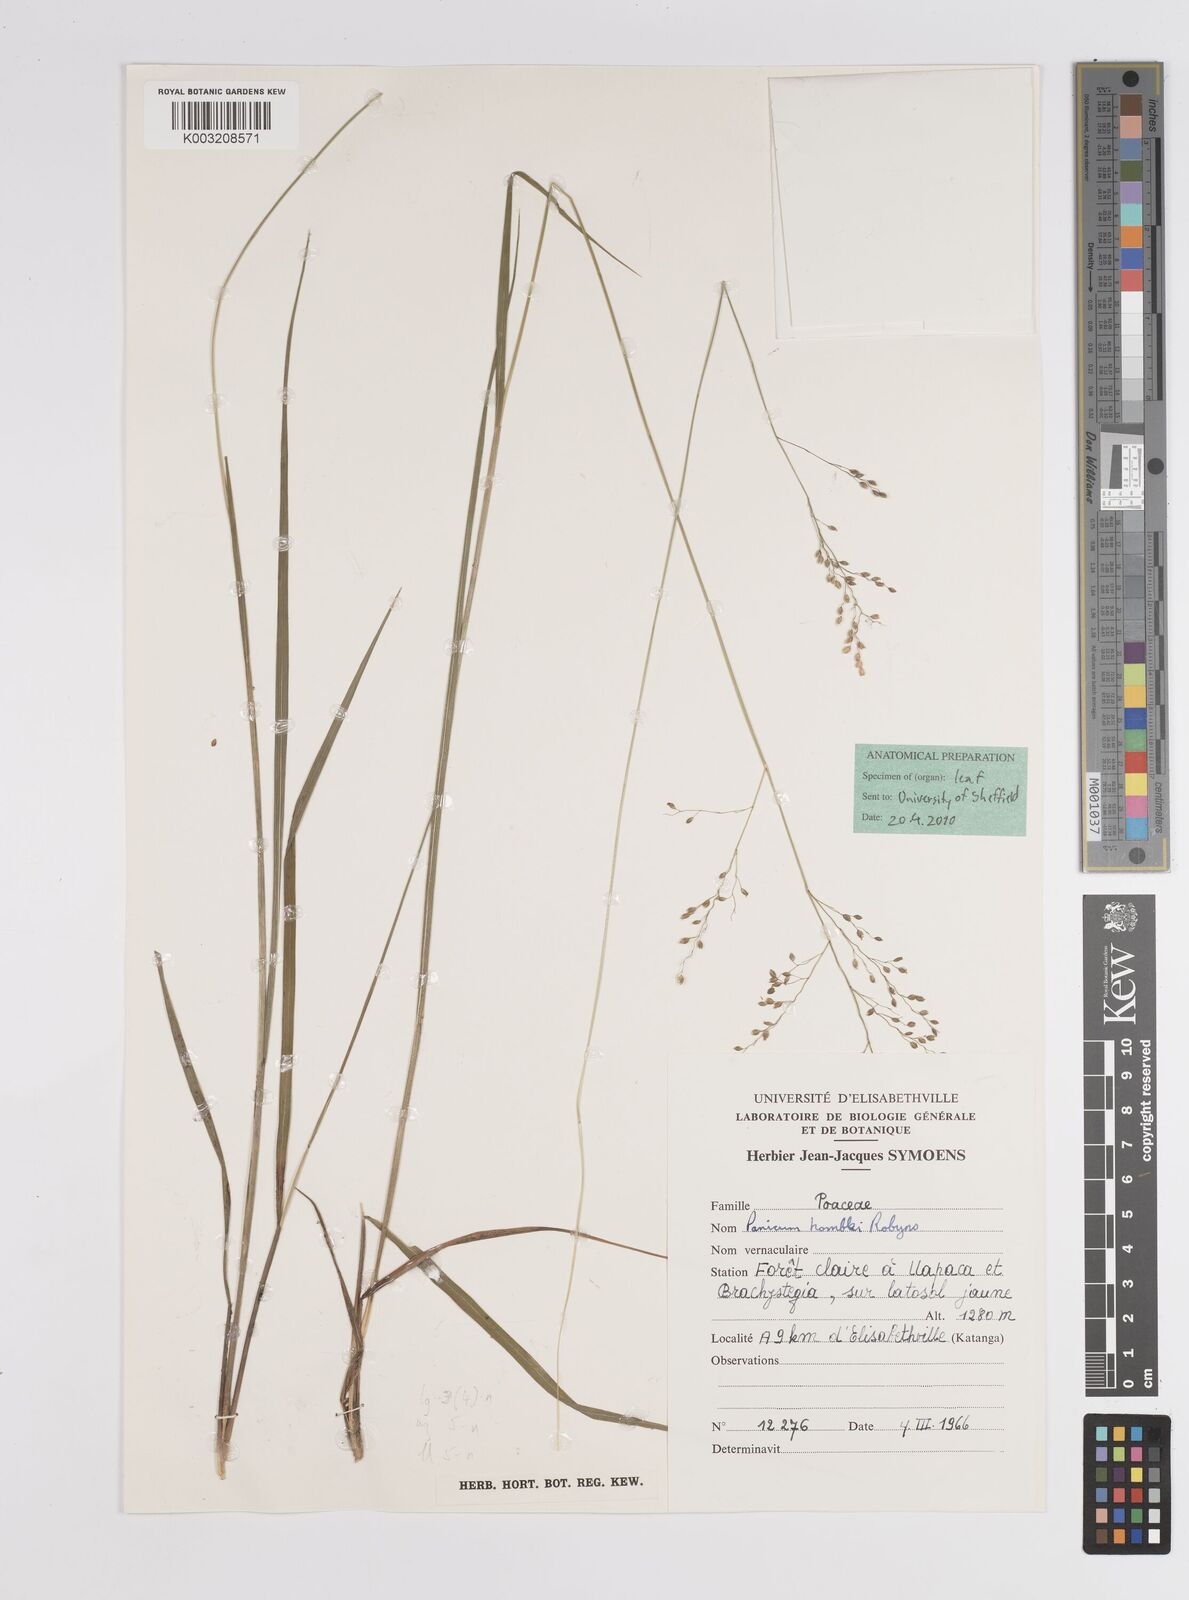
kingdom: Plantae
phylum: Tracheophyta
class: Liliopsida
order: Poales
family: Poaceae
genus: Trichanthecium
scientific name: Trichanthecium margaritiferum
